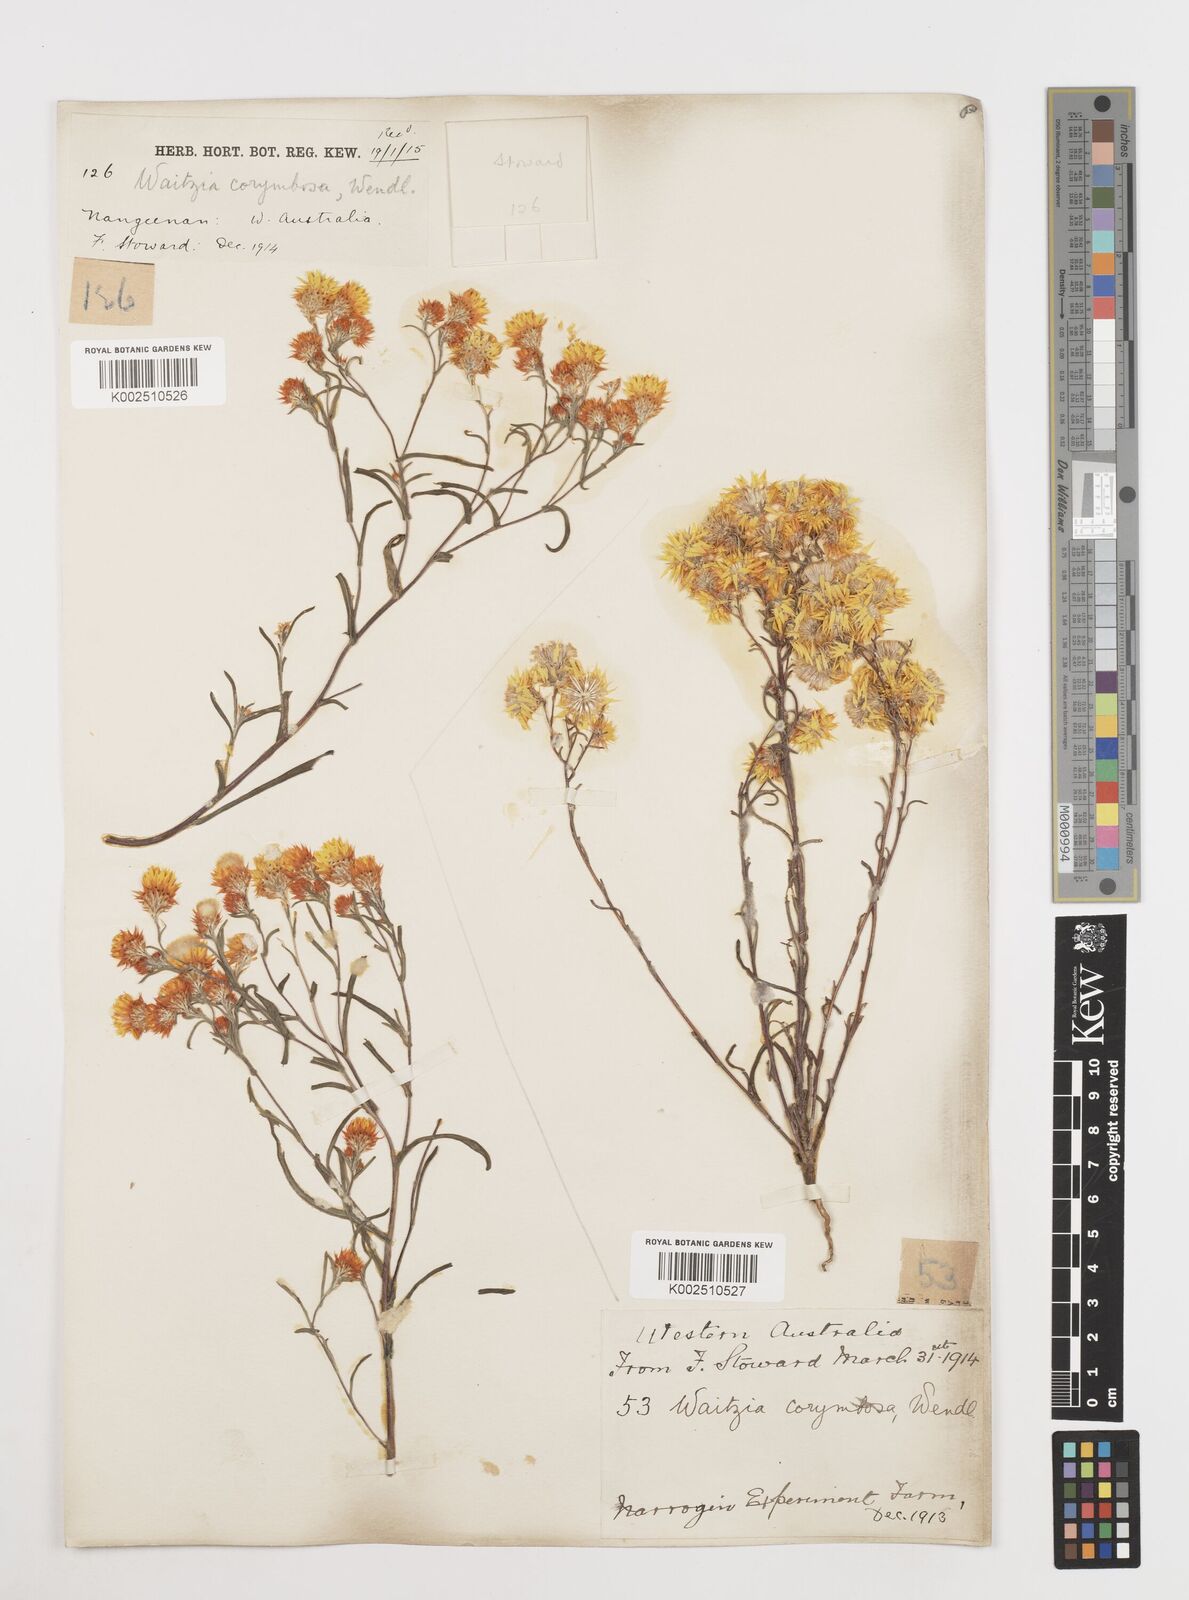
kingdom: Plantae
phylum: Tracheophyta
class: Magnoliopsida
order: Asterales
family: Asteraceae
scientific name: Asteraceae
